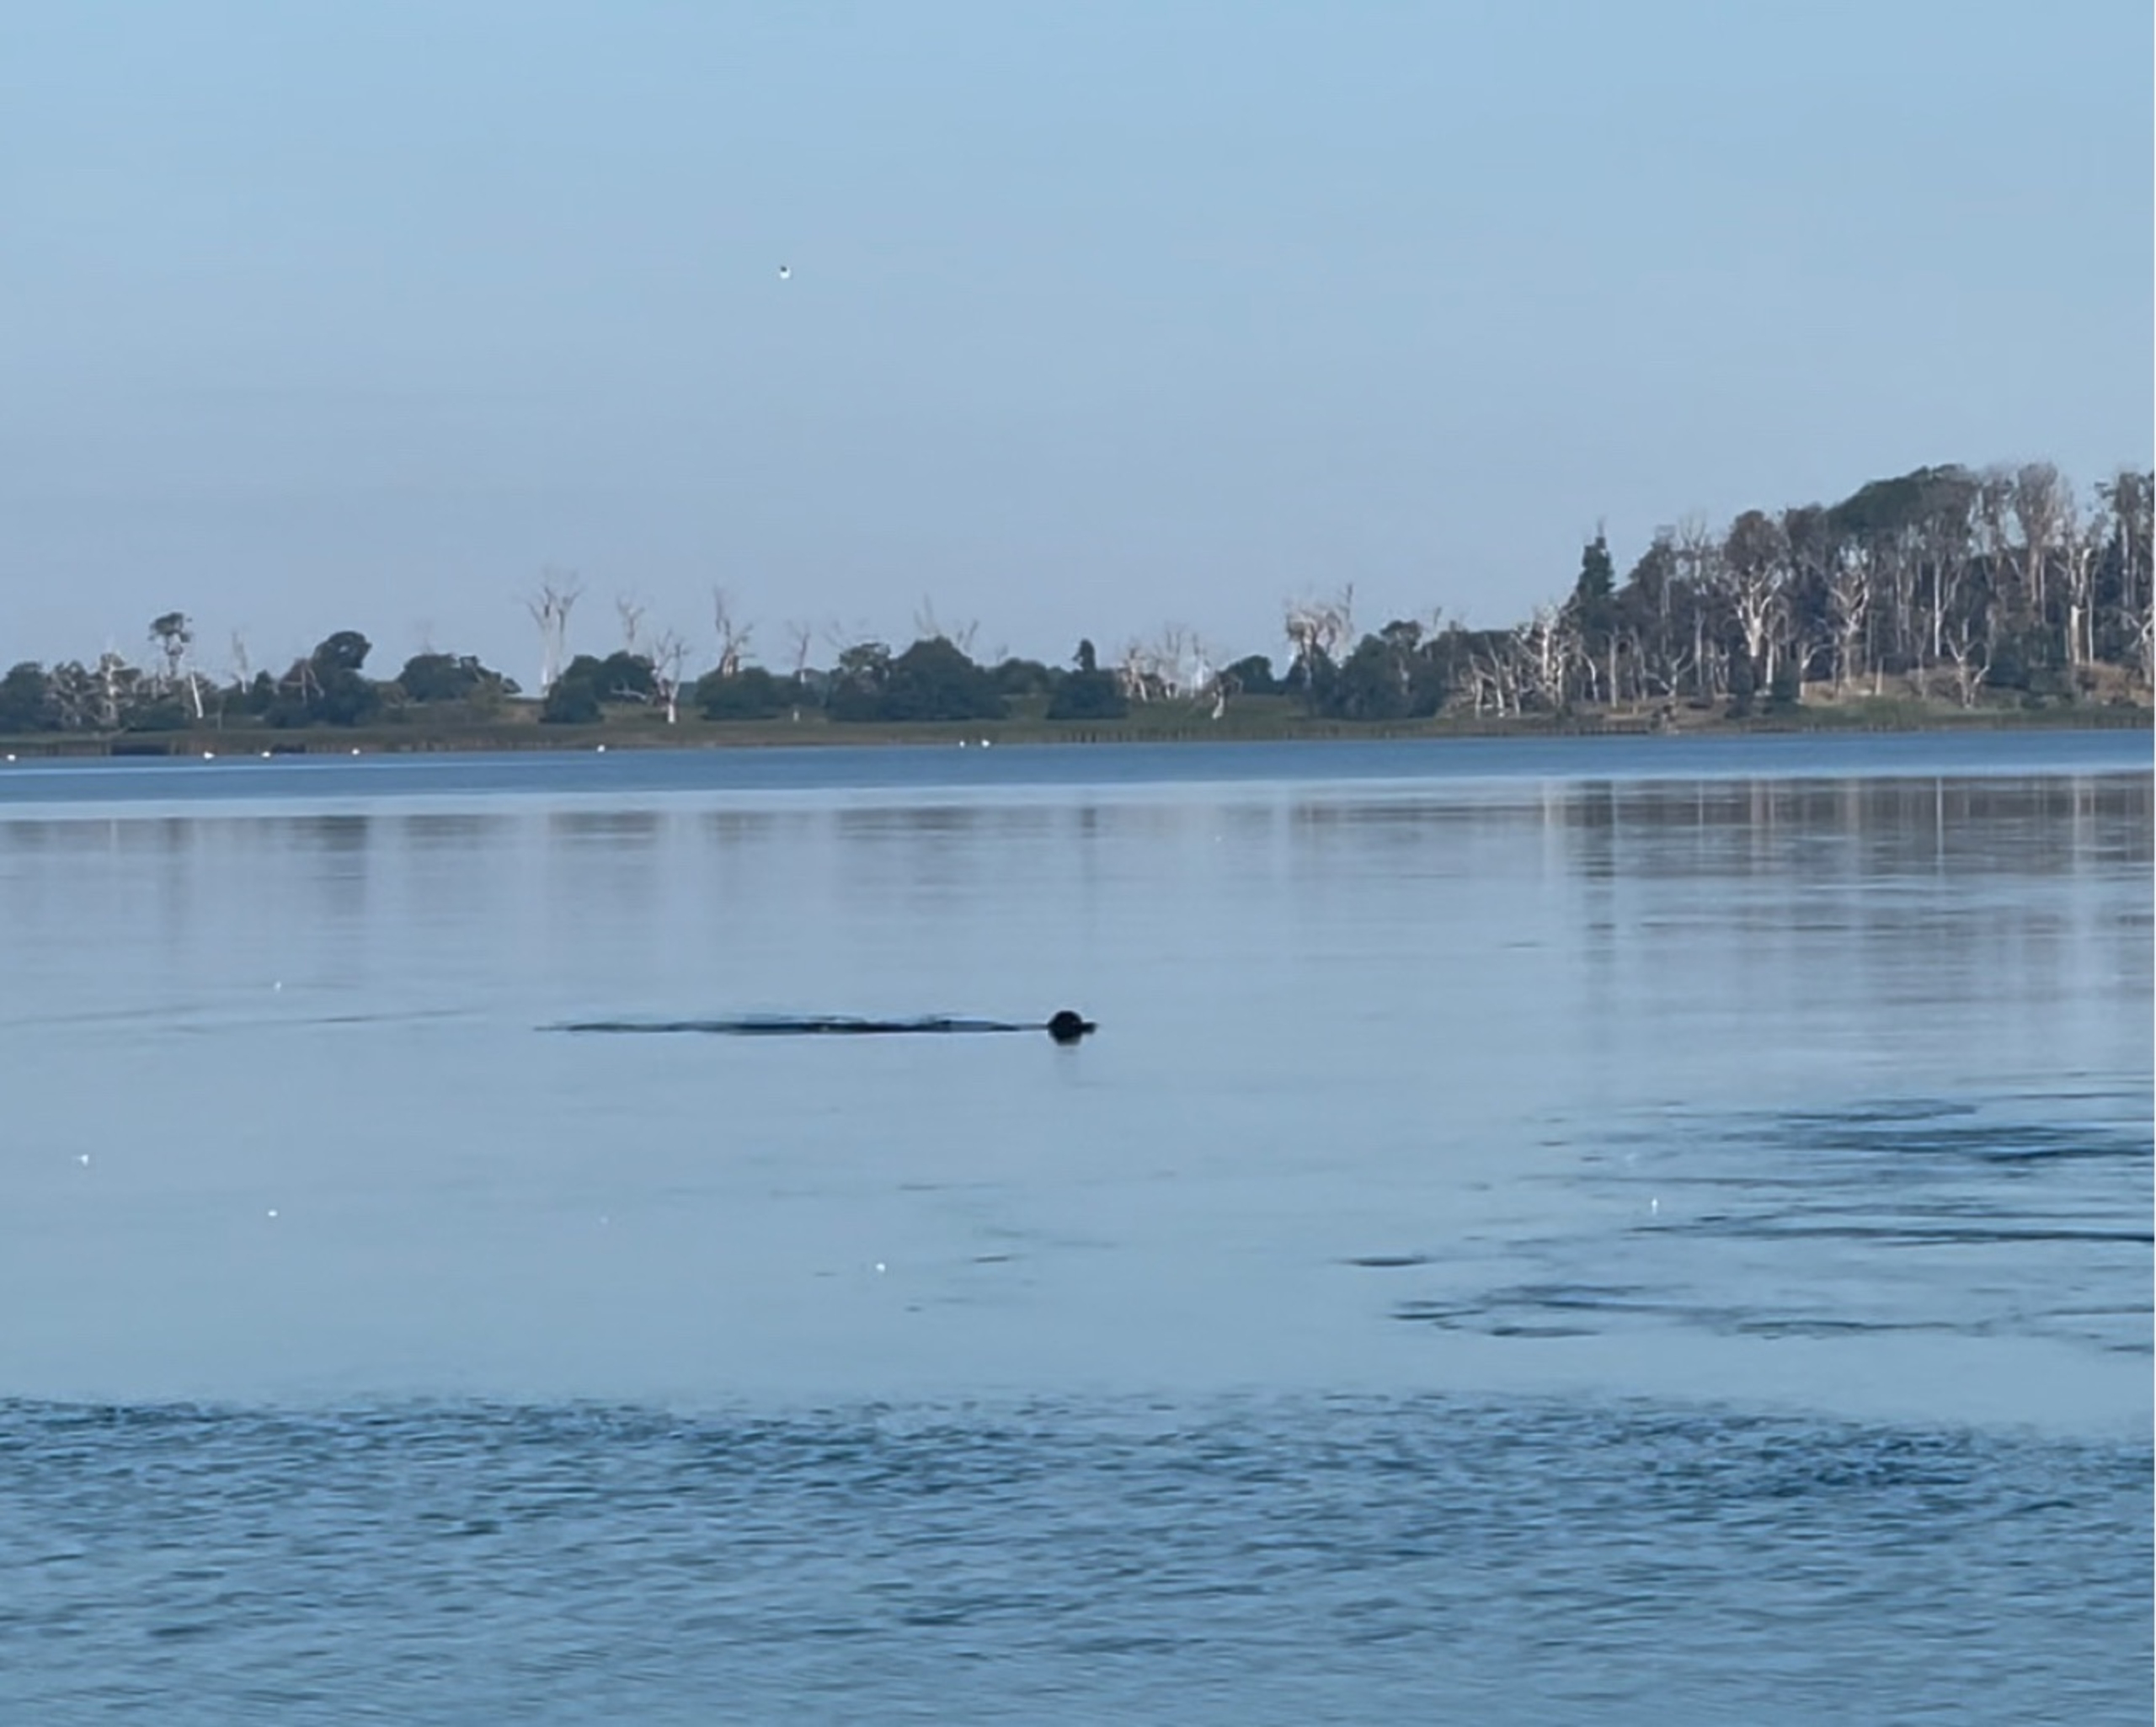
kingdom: Animalia
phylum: Chordata
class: Mammalia
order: Carnivora
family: Phocidae
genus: Phoca
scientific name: Phoca vitulina
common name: Spættet sæl
